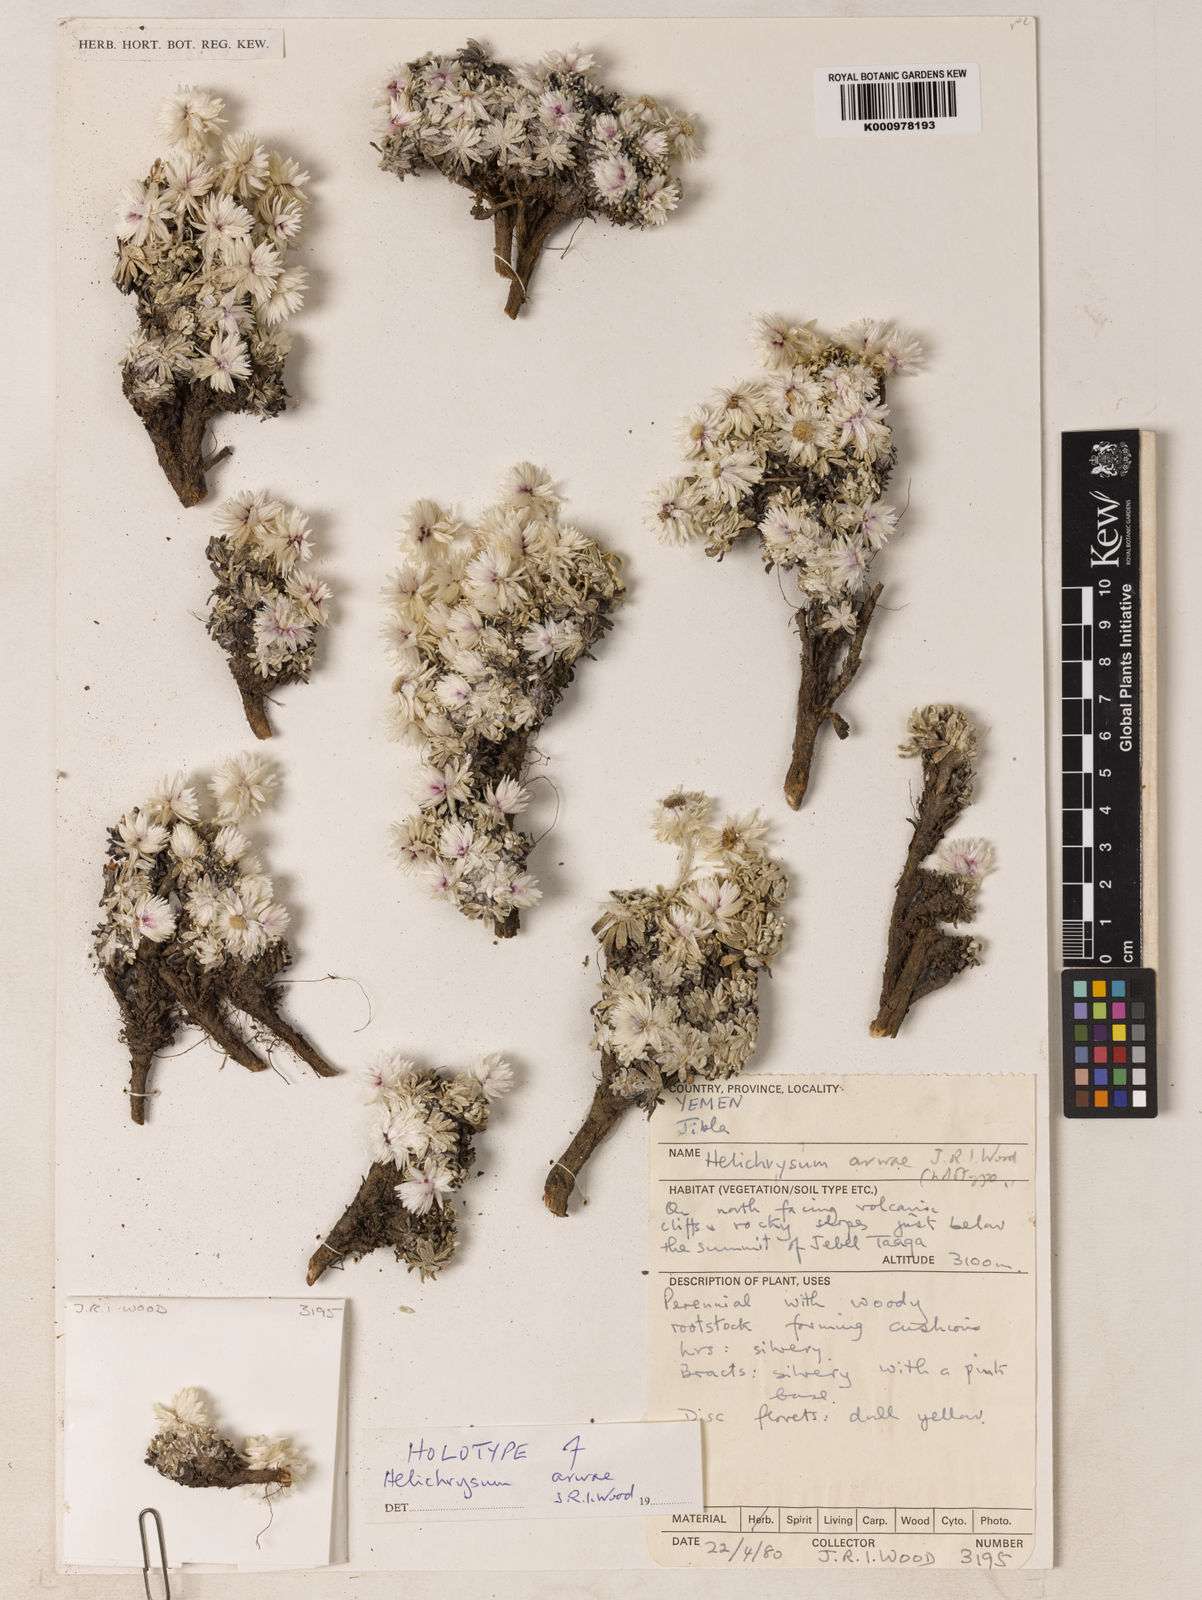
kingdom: Plantae
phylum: Tracheophyta
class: Magnoliopsida
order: Asterales
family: Asteraceae
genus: Helichrysum
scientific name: Helichrysum arwae
